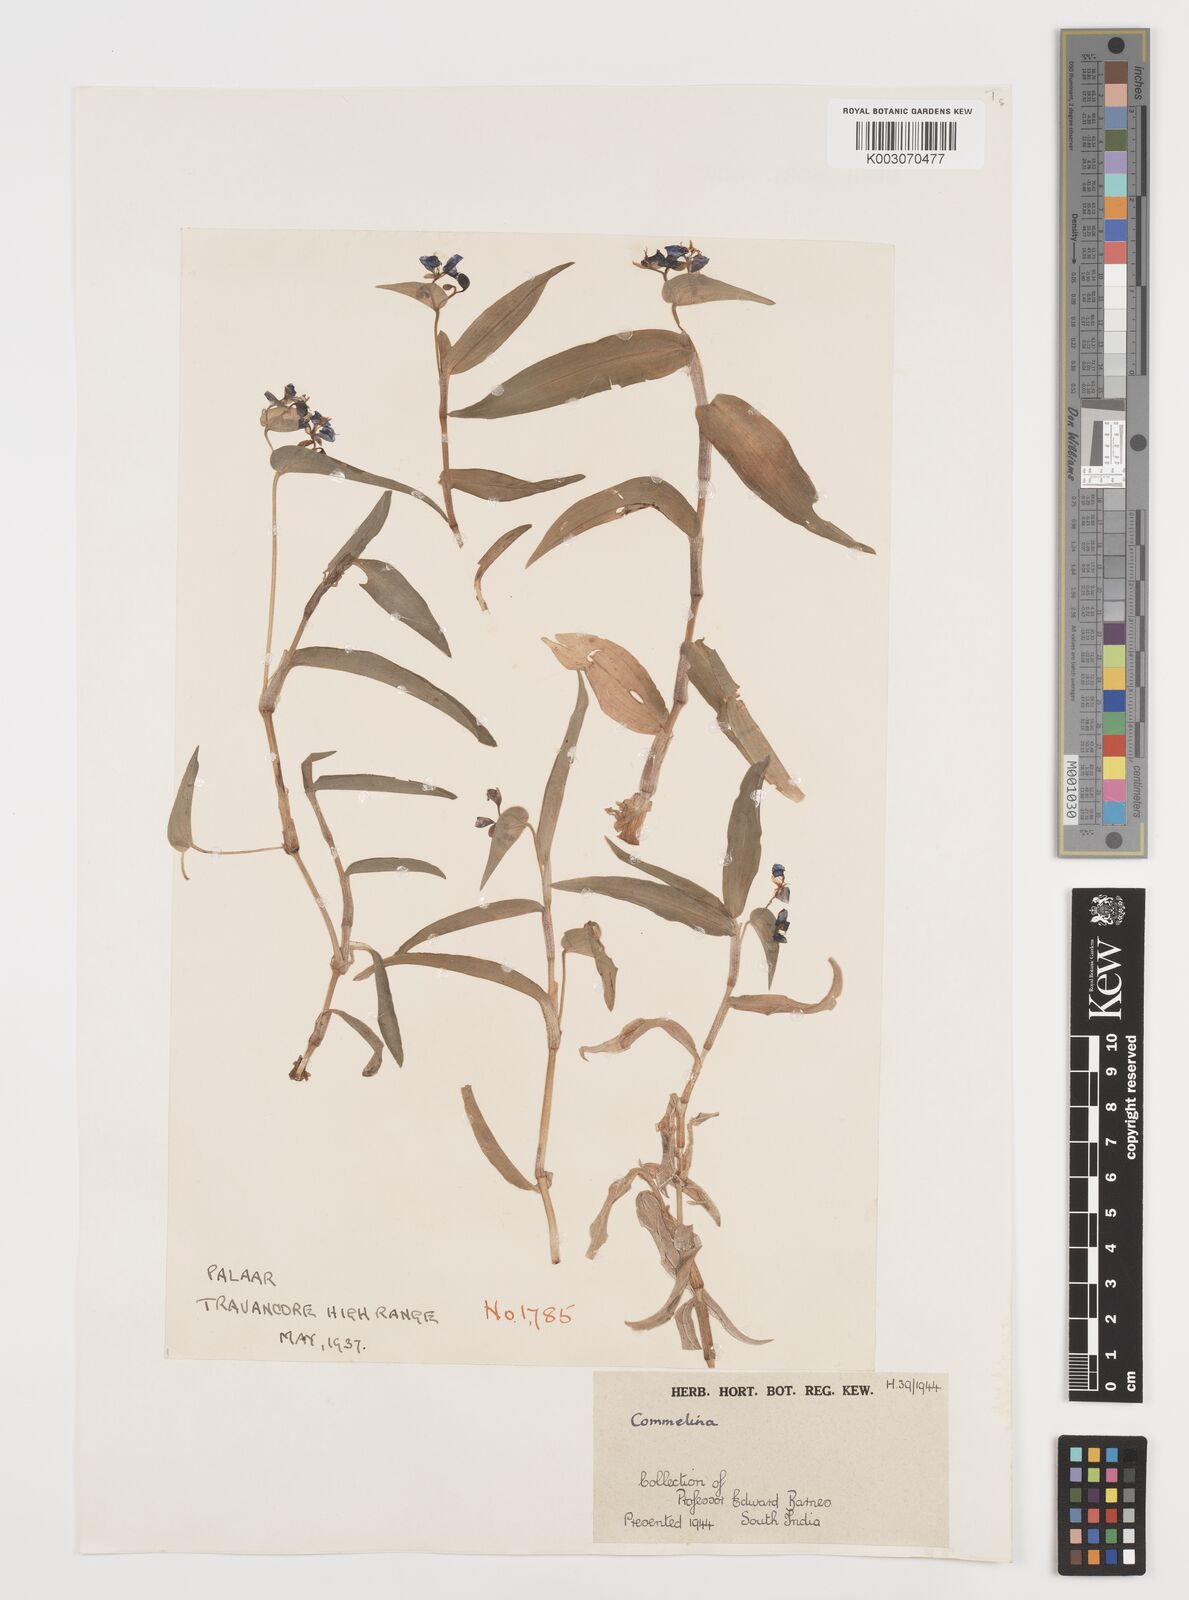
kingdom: Plantae
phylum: Tracheophyta
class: Liliopsida
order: Commelinales
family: Commelinaceae
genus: Commelina
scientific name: Commelina
